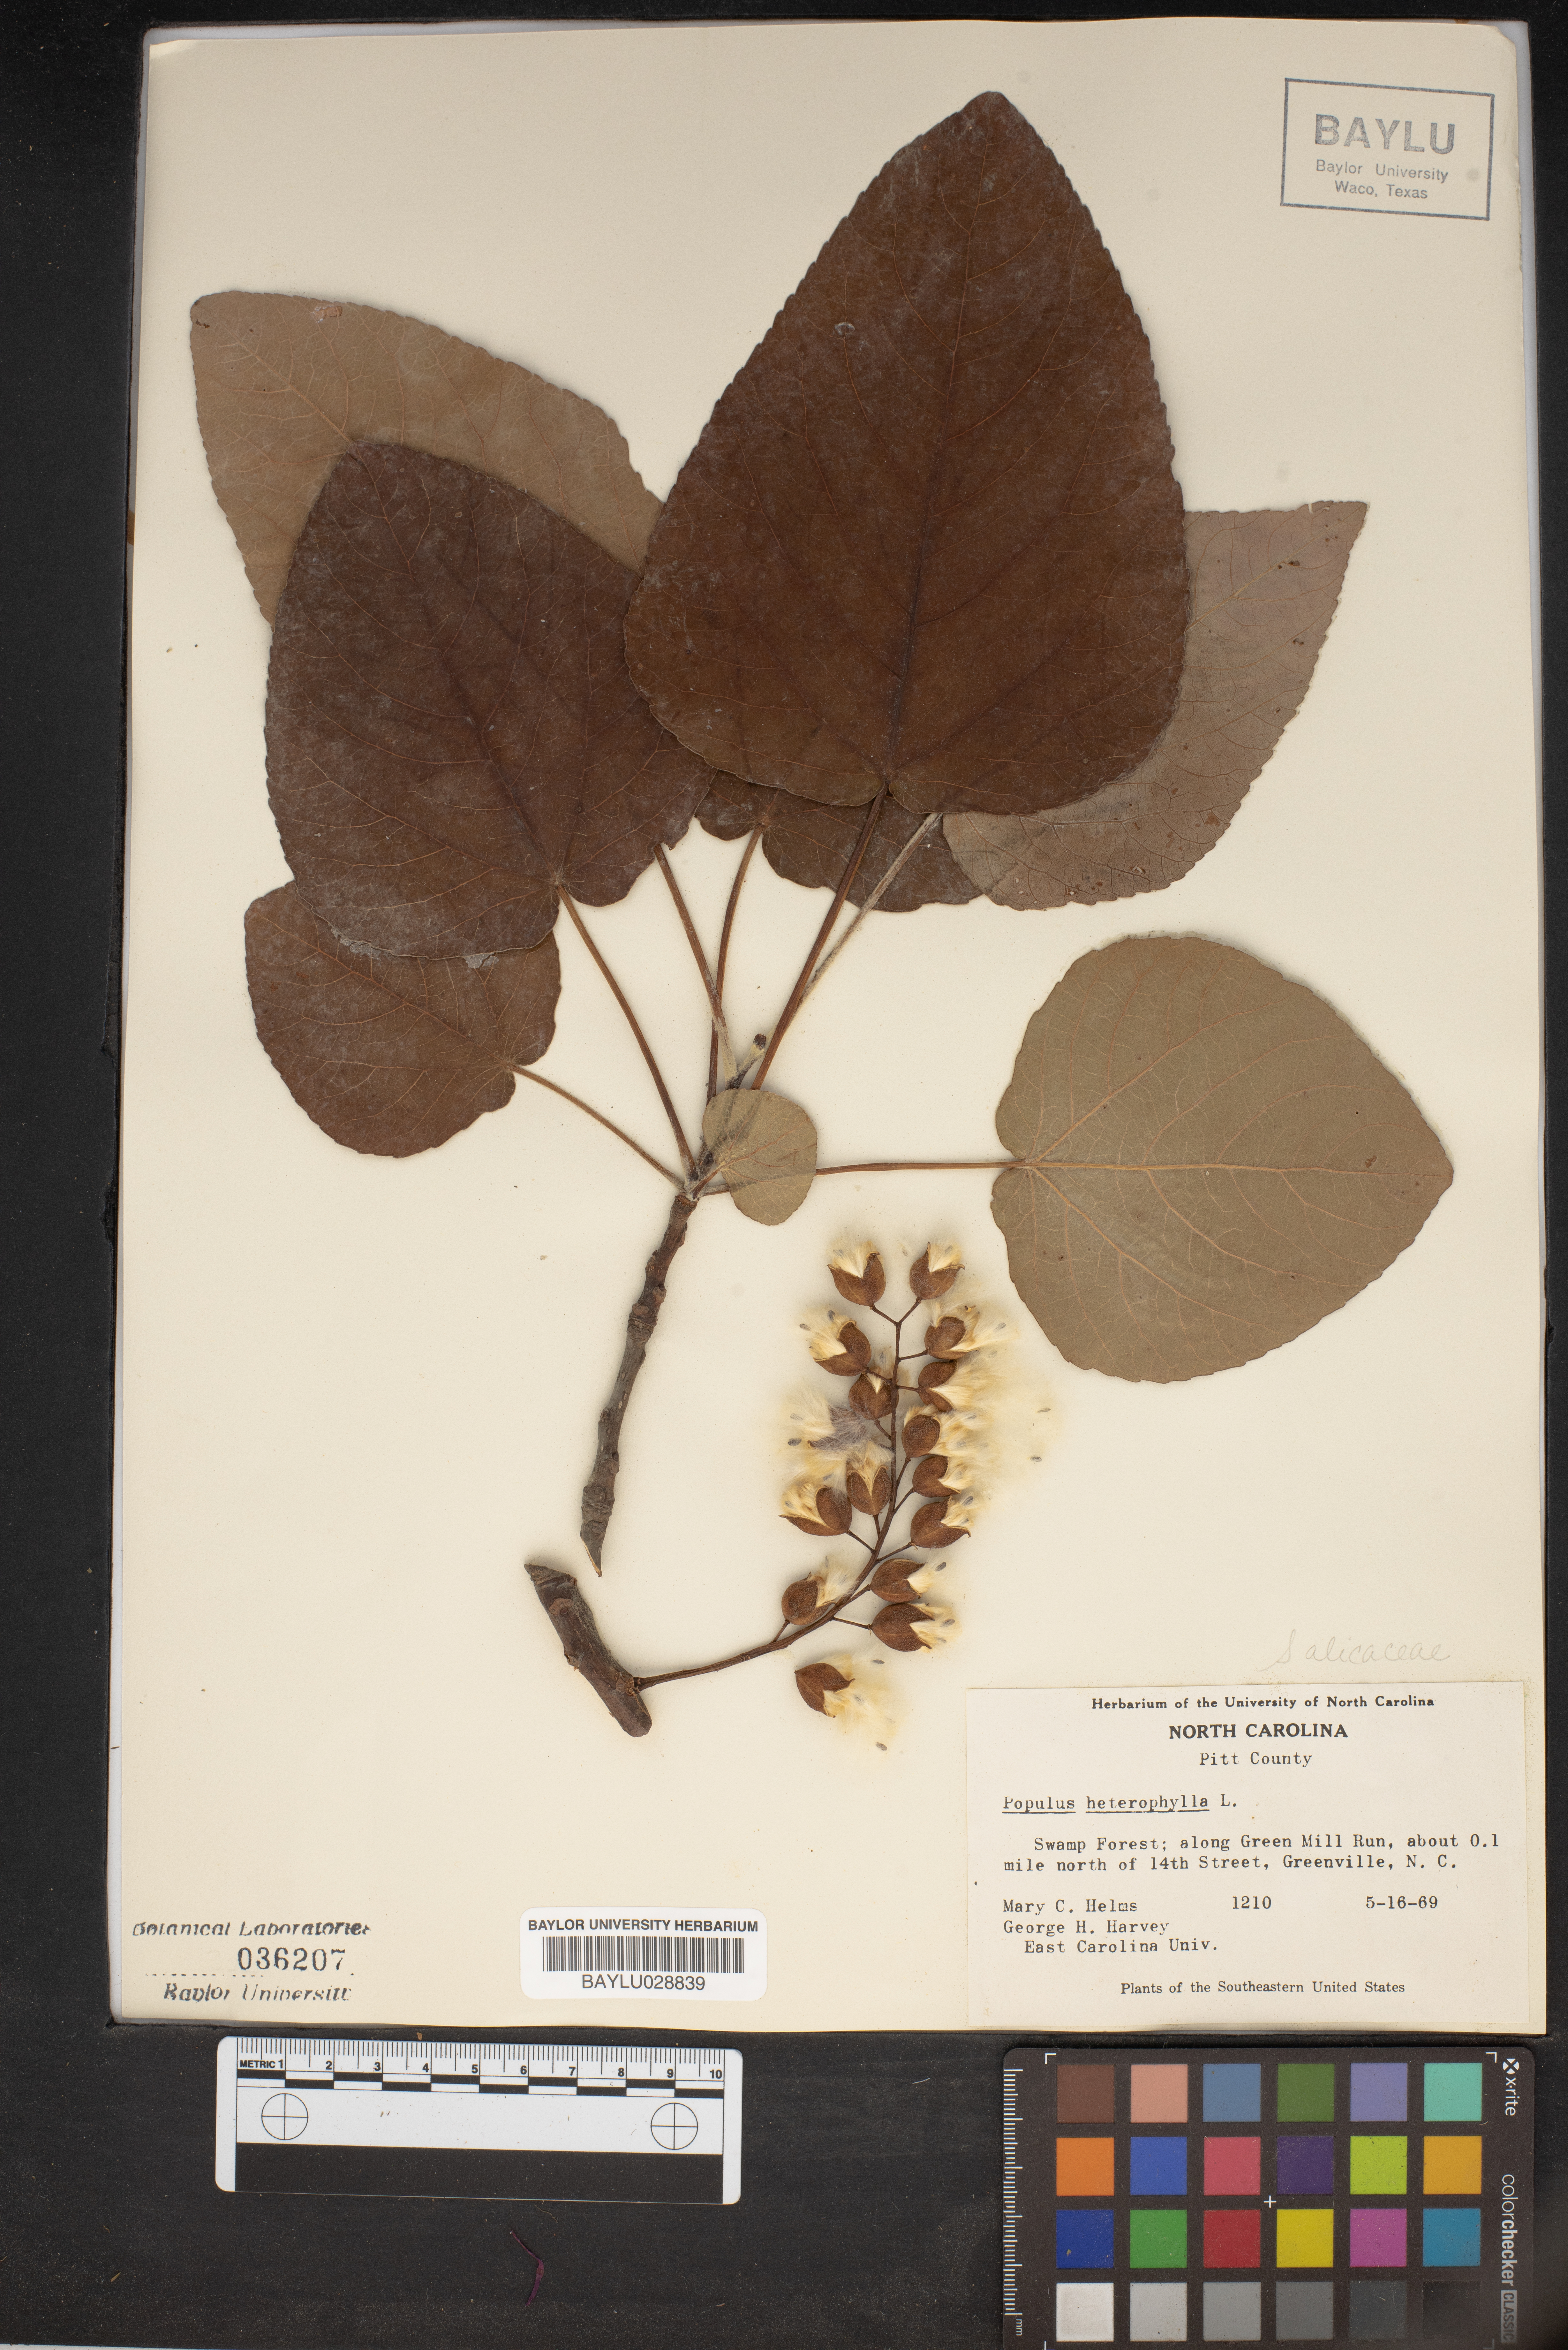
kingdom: Plantae
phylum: Tracheophyta
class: Magnoliopsida
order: Malpighiales
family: Salicaceae
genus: Populus
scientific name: Populus heterophylla
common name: Downy poplar
